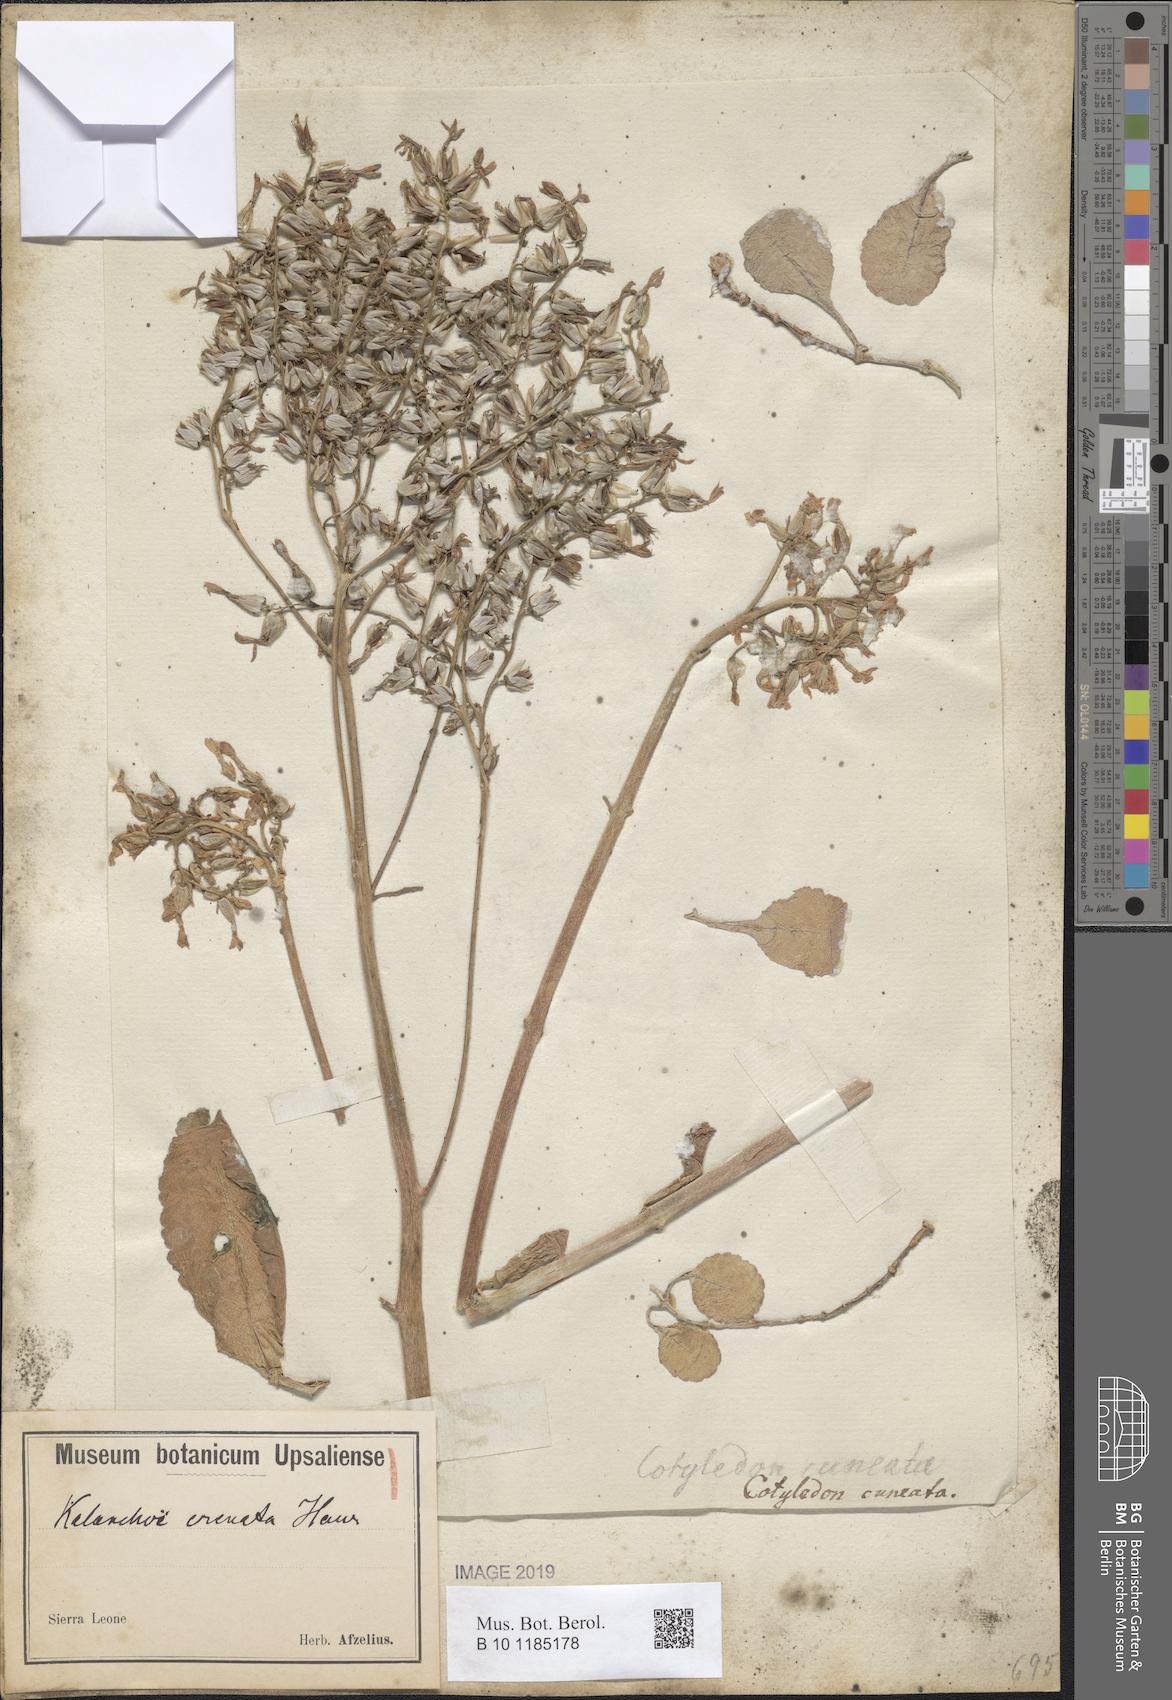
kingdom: Plantae
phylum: Tracheophyta
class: Magnoliopsida
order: Saxifragales
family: Crassulaceae
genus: Kalanchoe
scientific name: Kalanchoe crenata
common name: Neverdie
